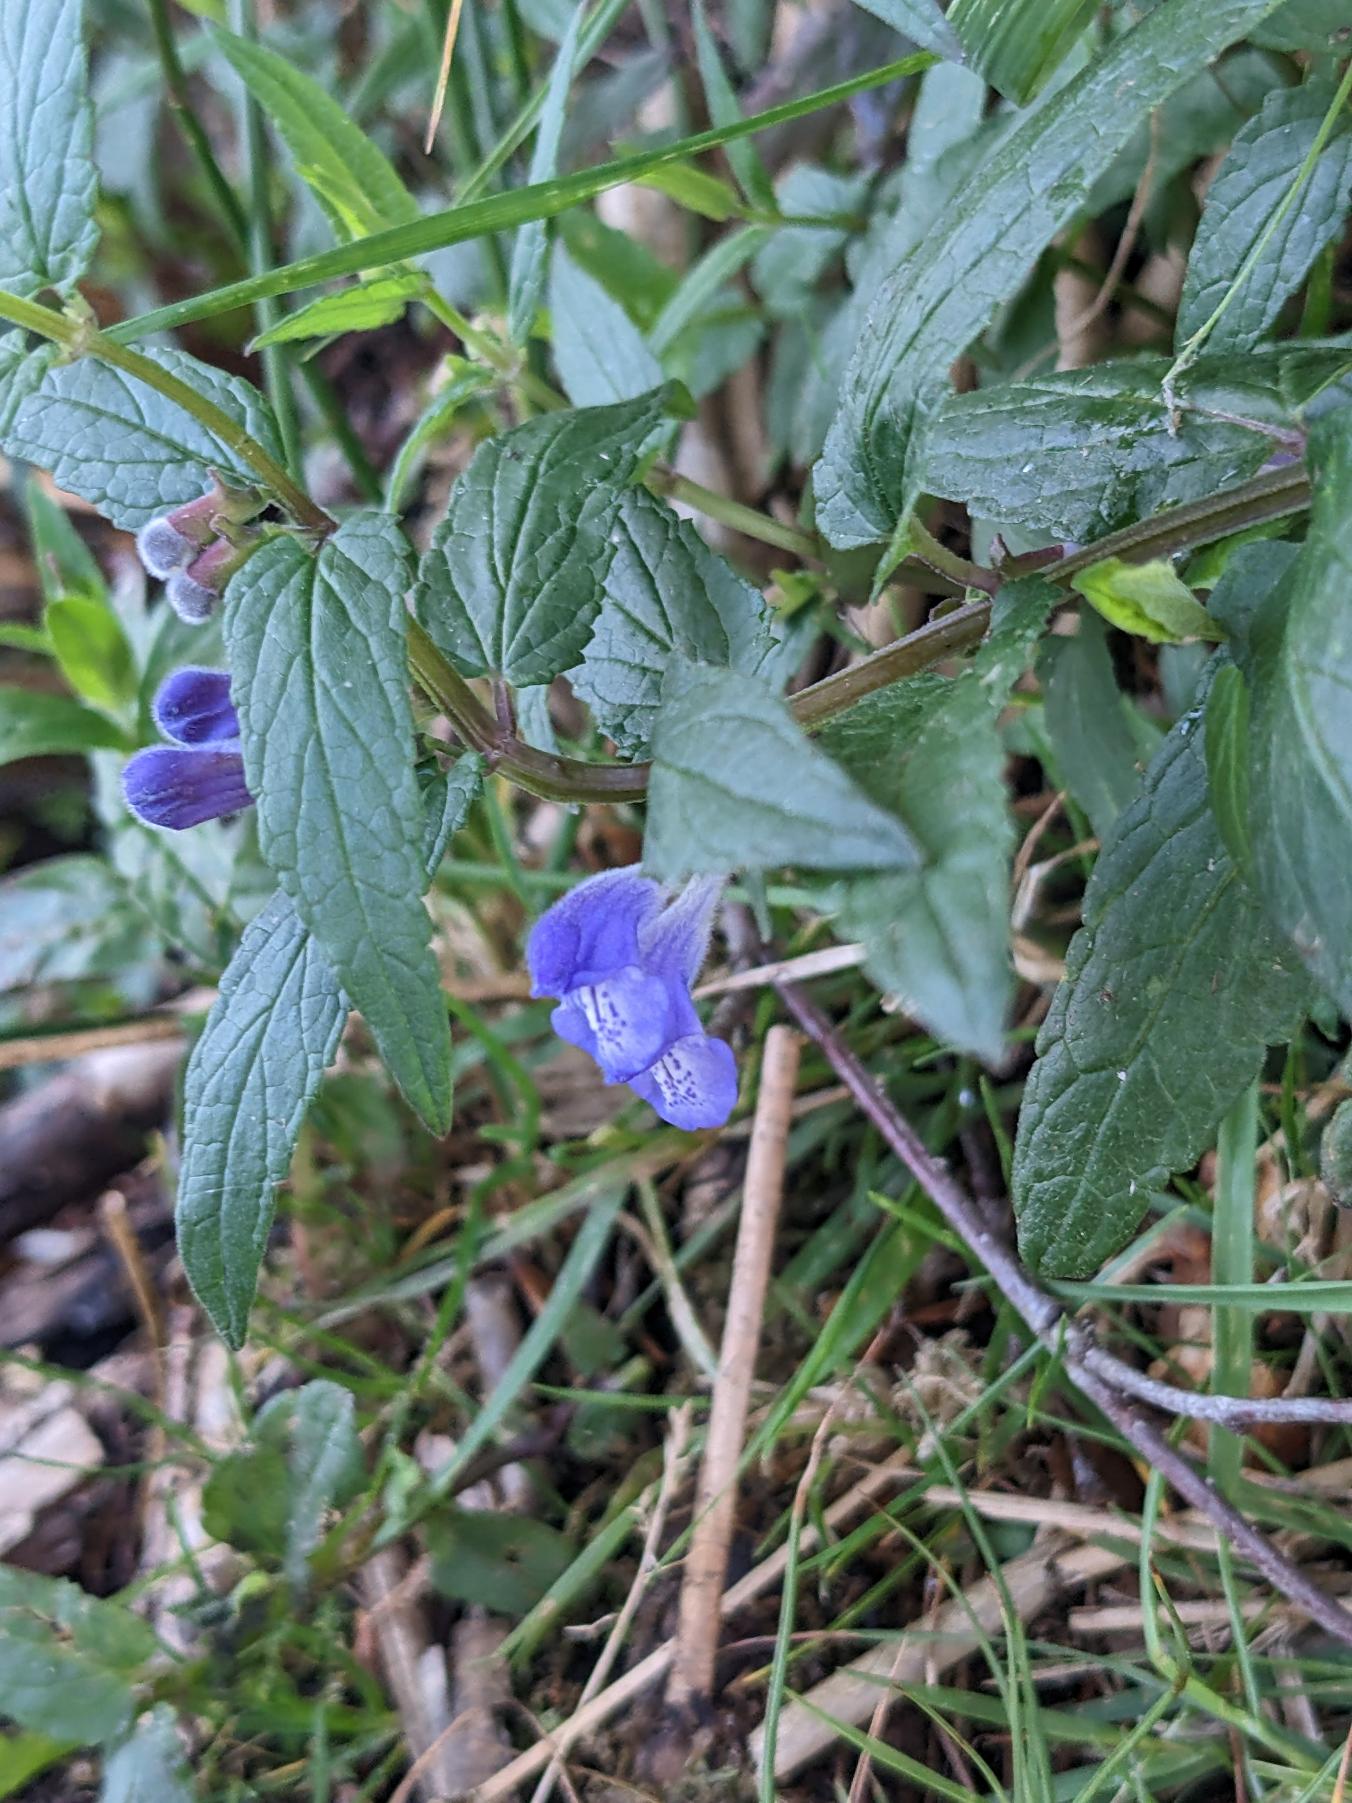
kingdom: Plantae
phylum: Tracheophyta
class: Magnoliopsida
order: Lamiales
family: Lamiaceae
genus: Scutellaria
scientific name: Scutellaria galericulata
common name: Almindelig skjolddrager
